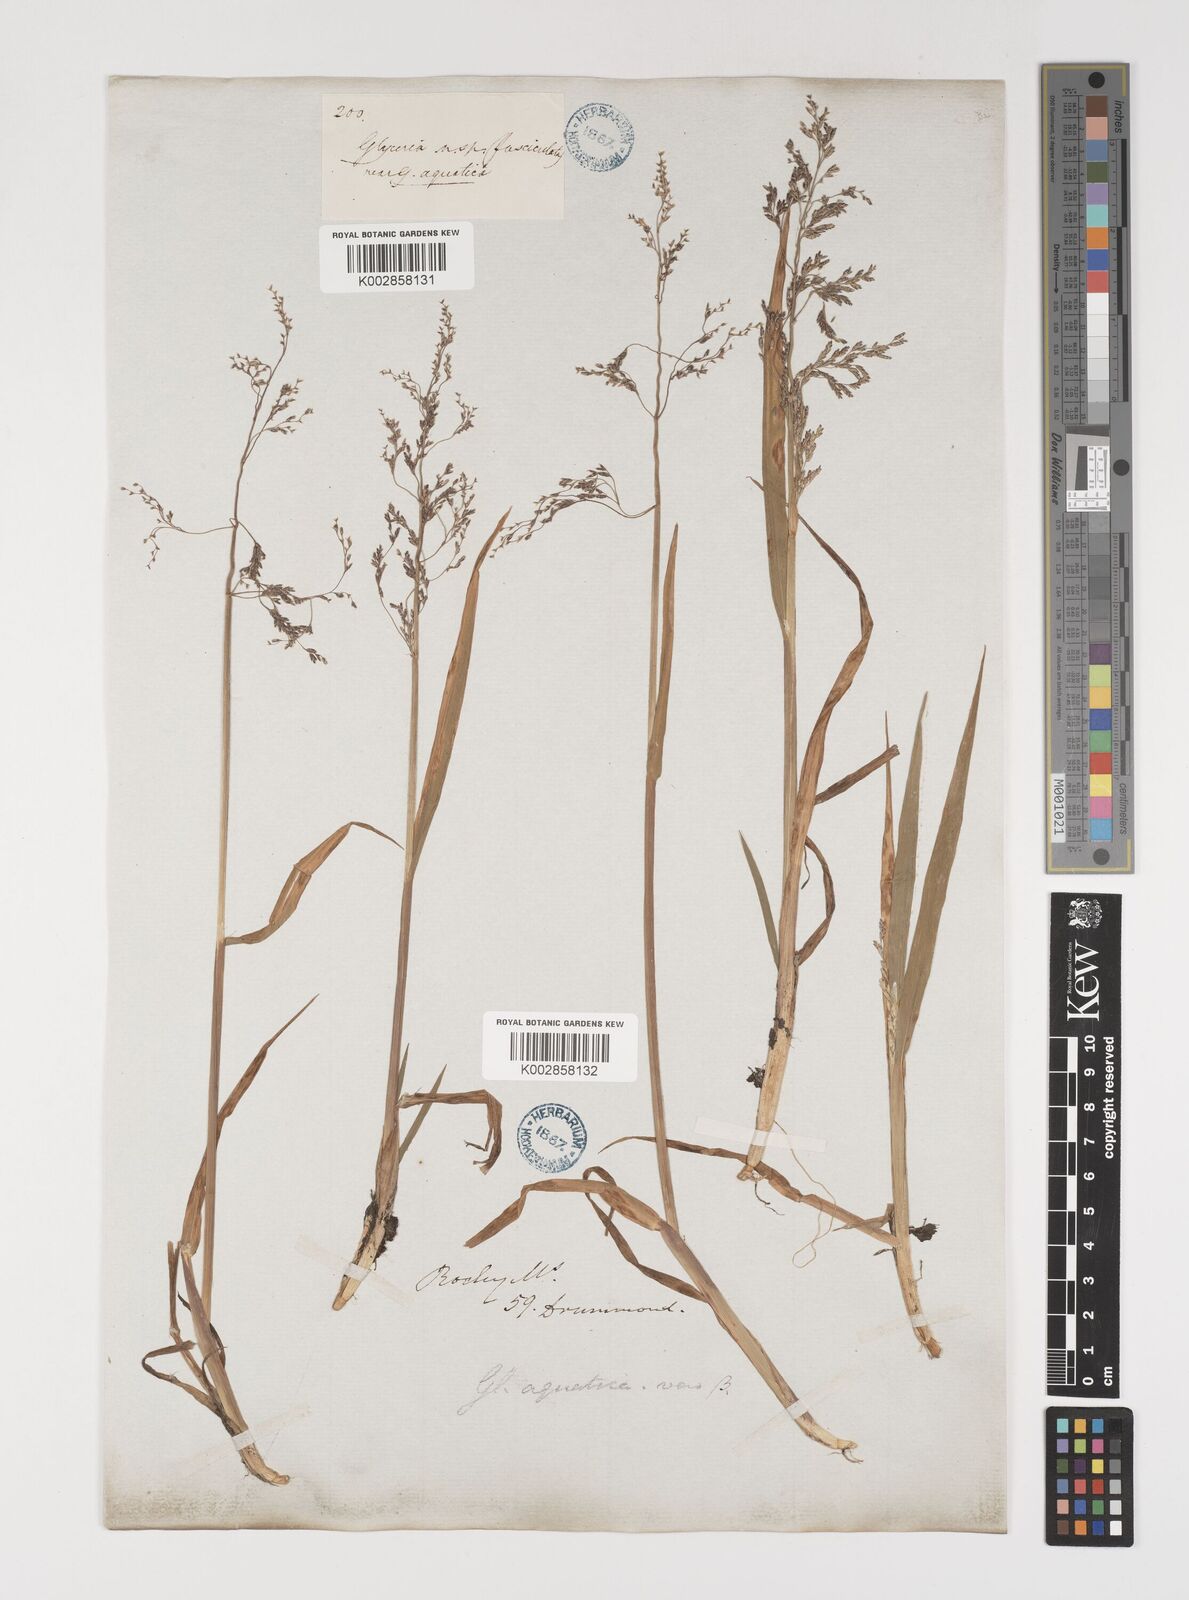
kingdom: Plantae
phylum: Tracheophyta
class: Liliopsida
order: Poales
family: Poaceae
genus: Torreyochloa
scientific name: Torreyochloa pallida
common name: Pale false mannagrass
